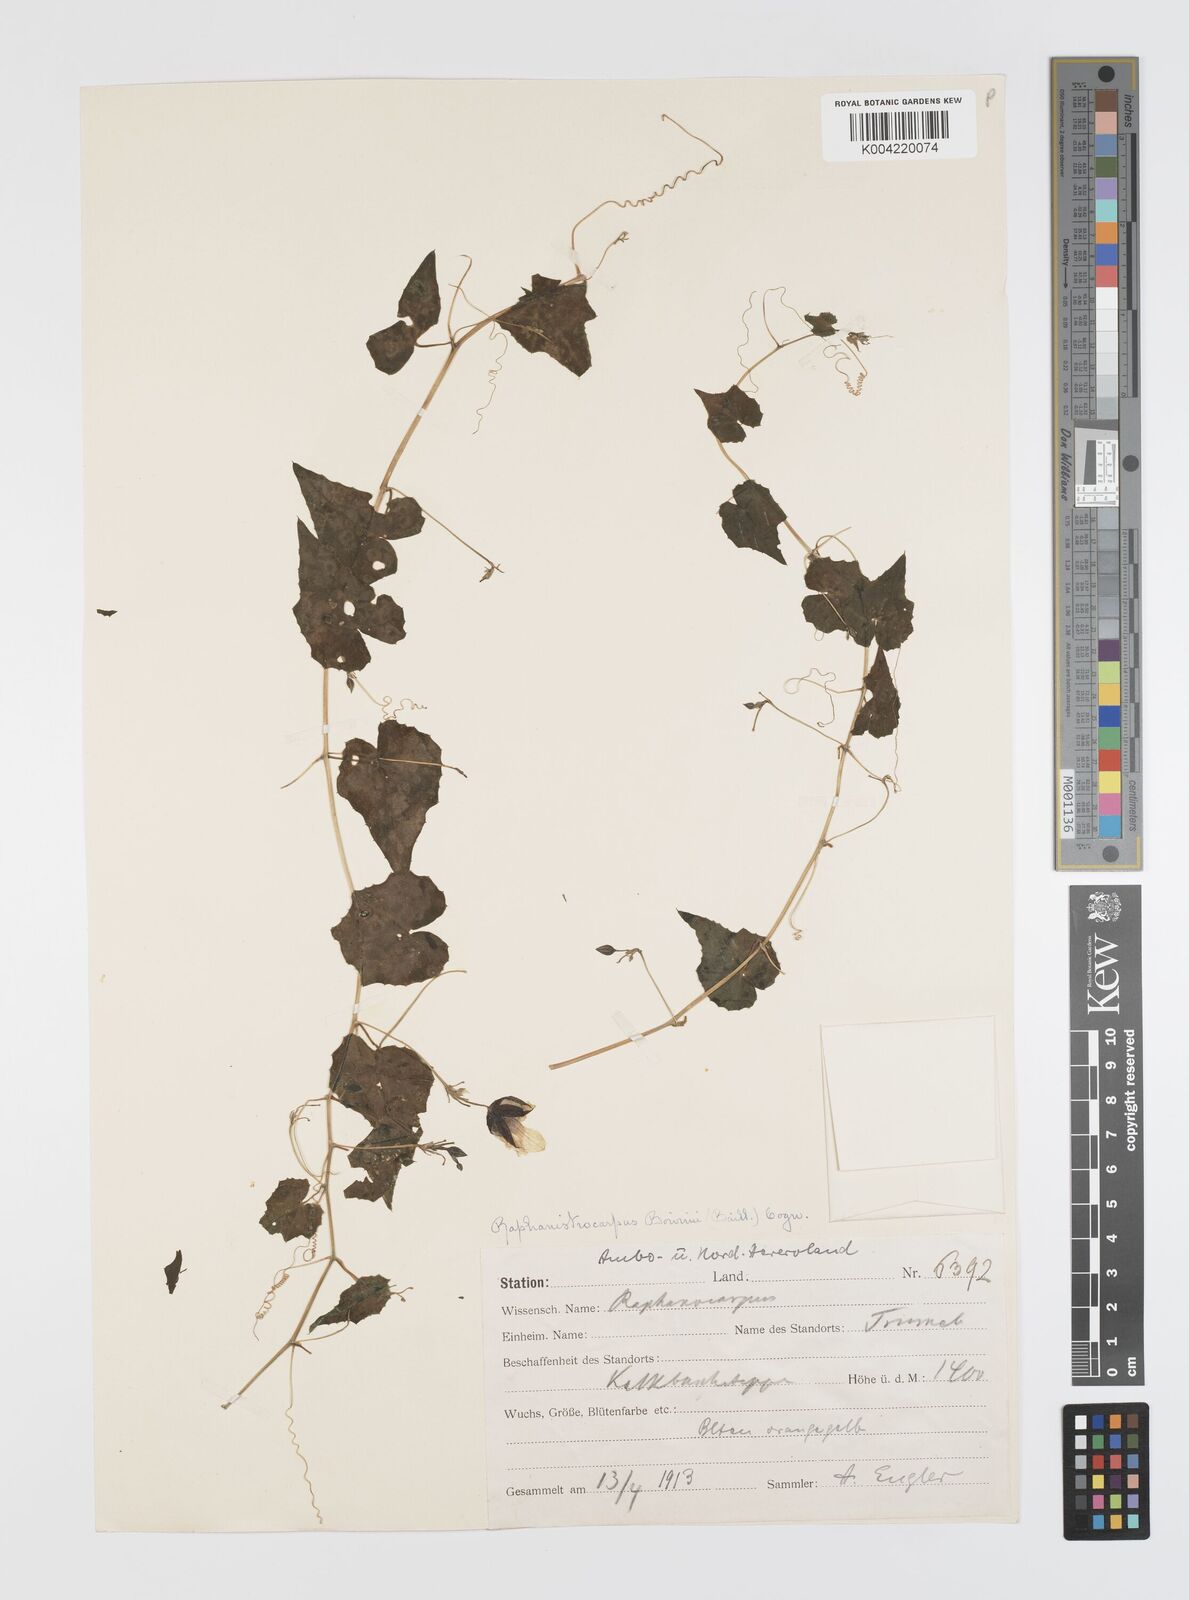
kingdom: Plantae
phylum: Tracheophyta
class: Magnoliopsida
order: Cucurbitales
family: Cucurbitaceae
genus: Momordica
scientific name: Momordica boivinii
